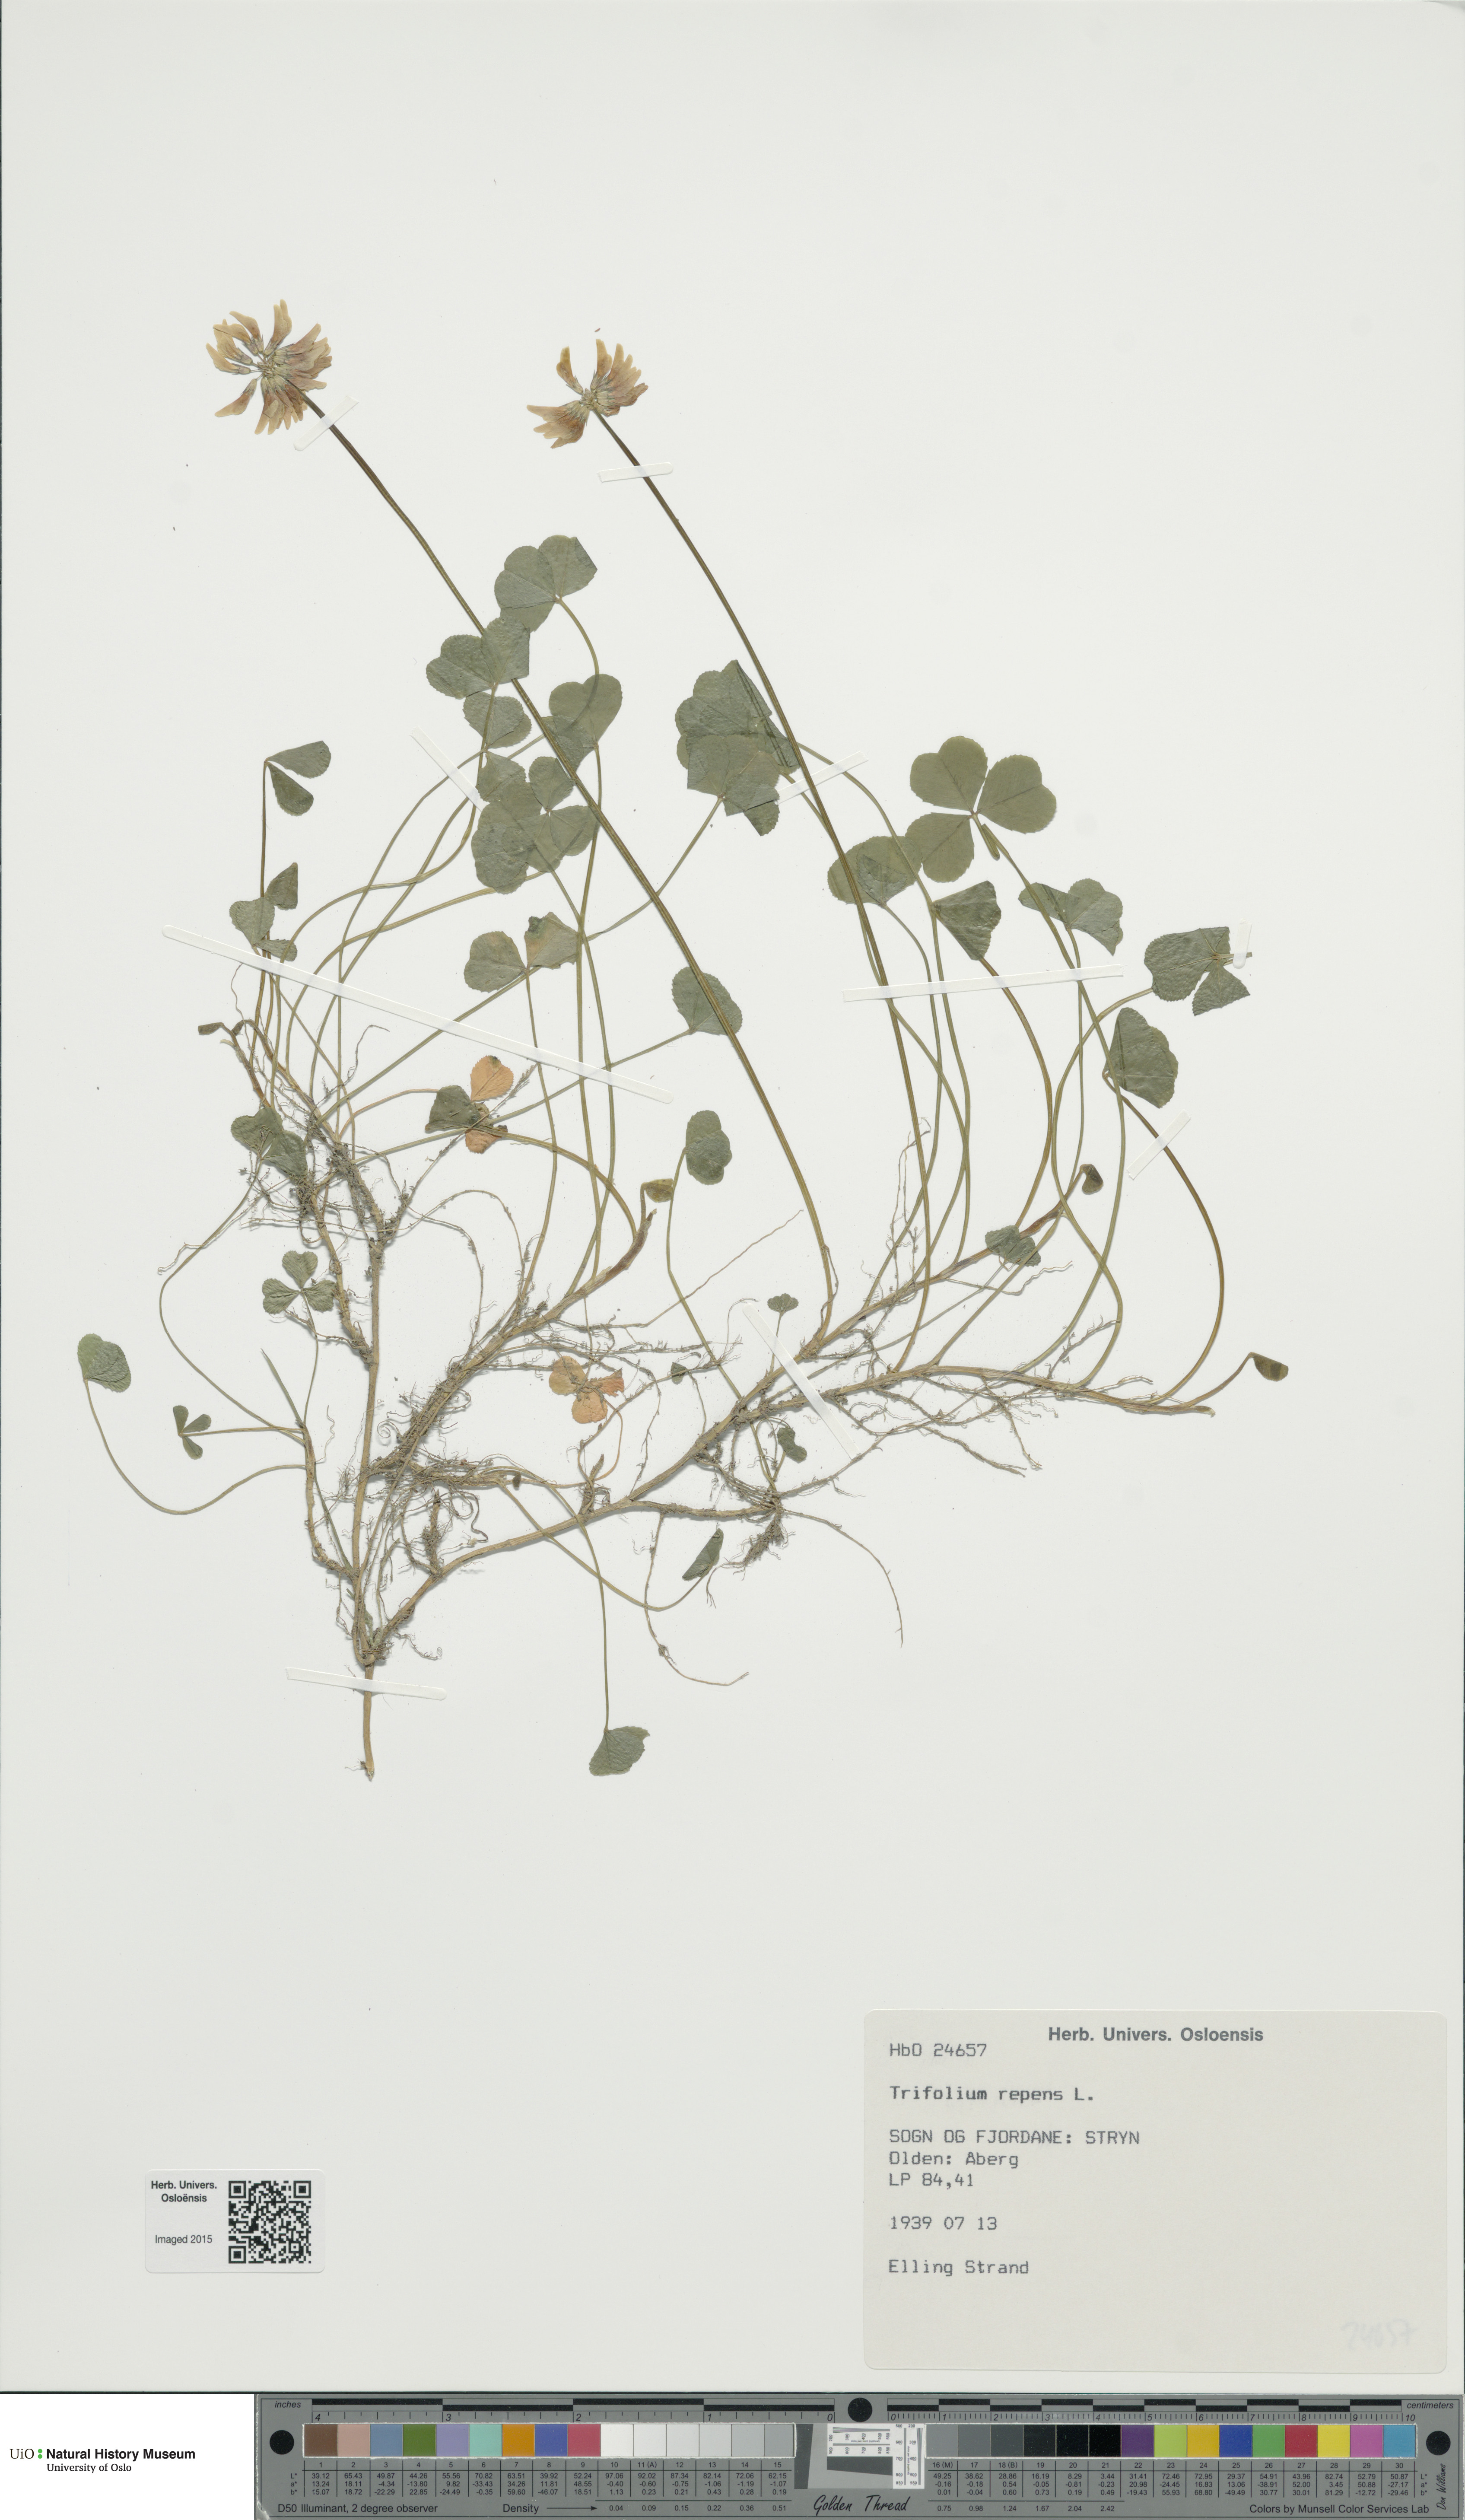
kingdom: Plantae
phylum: Tracheophyta
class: Magnoliopsida
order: Fabales
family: Fabaceae
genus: Trifolium
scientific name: Trifolium repens
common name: White clover
